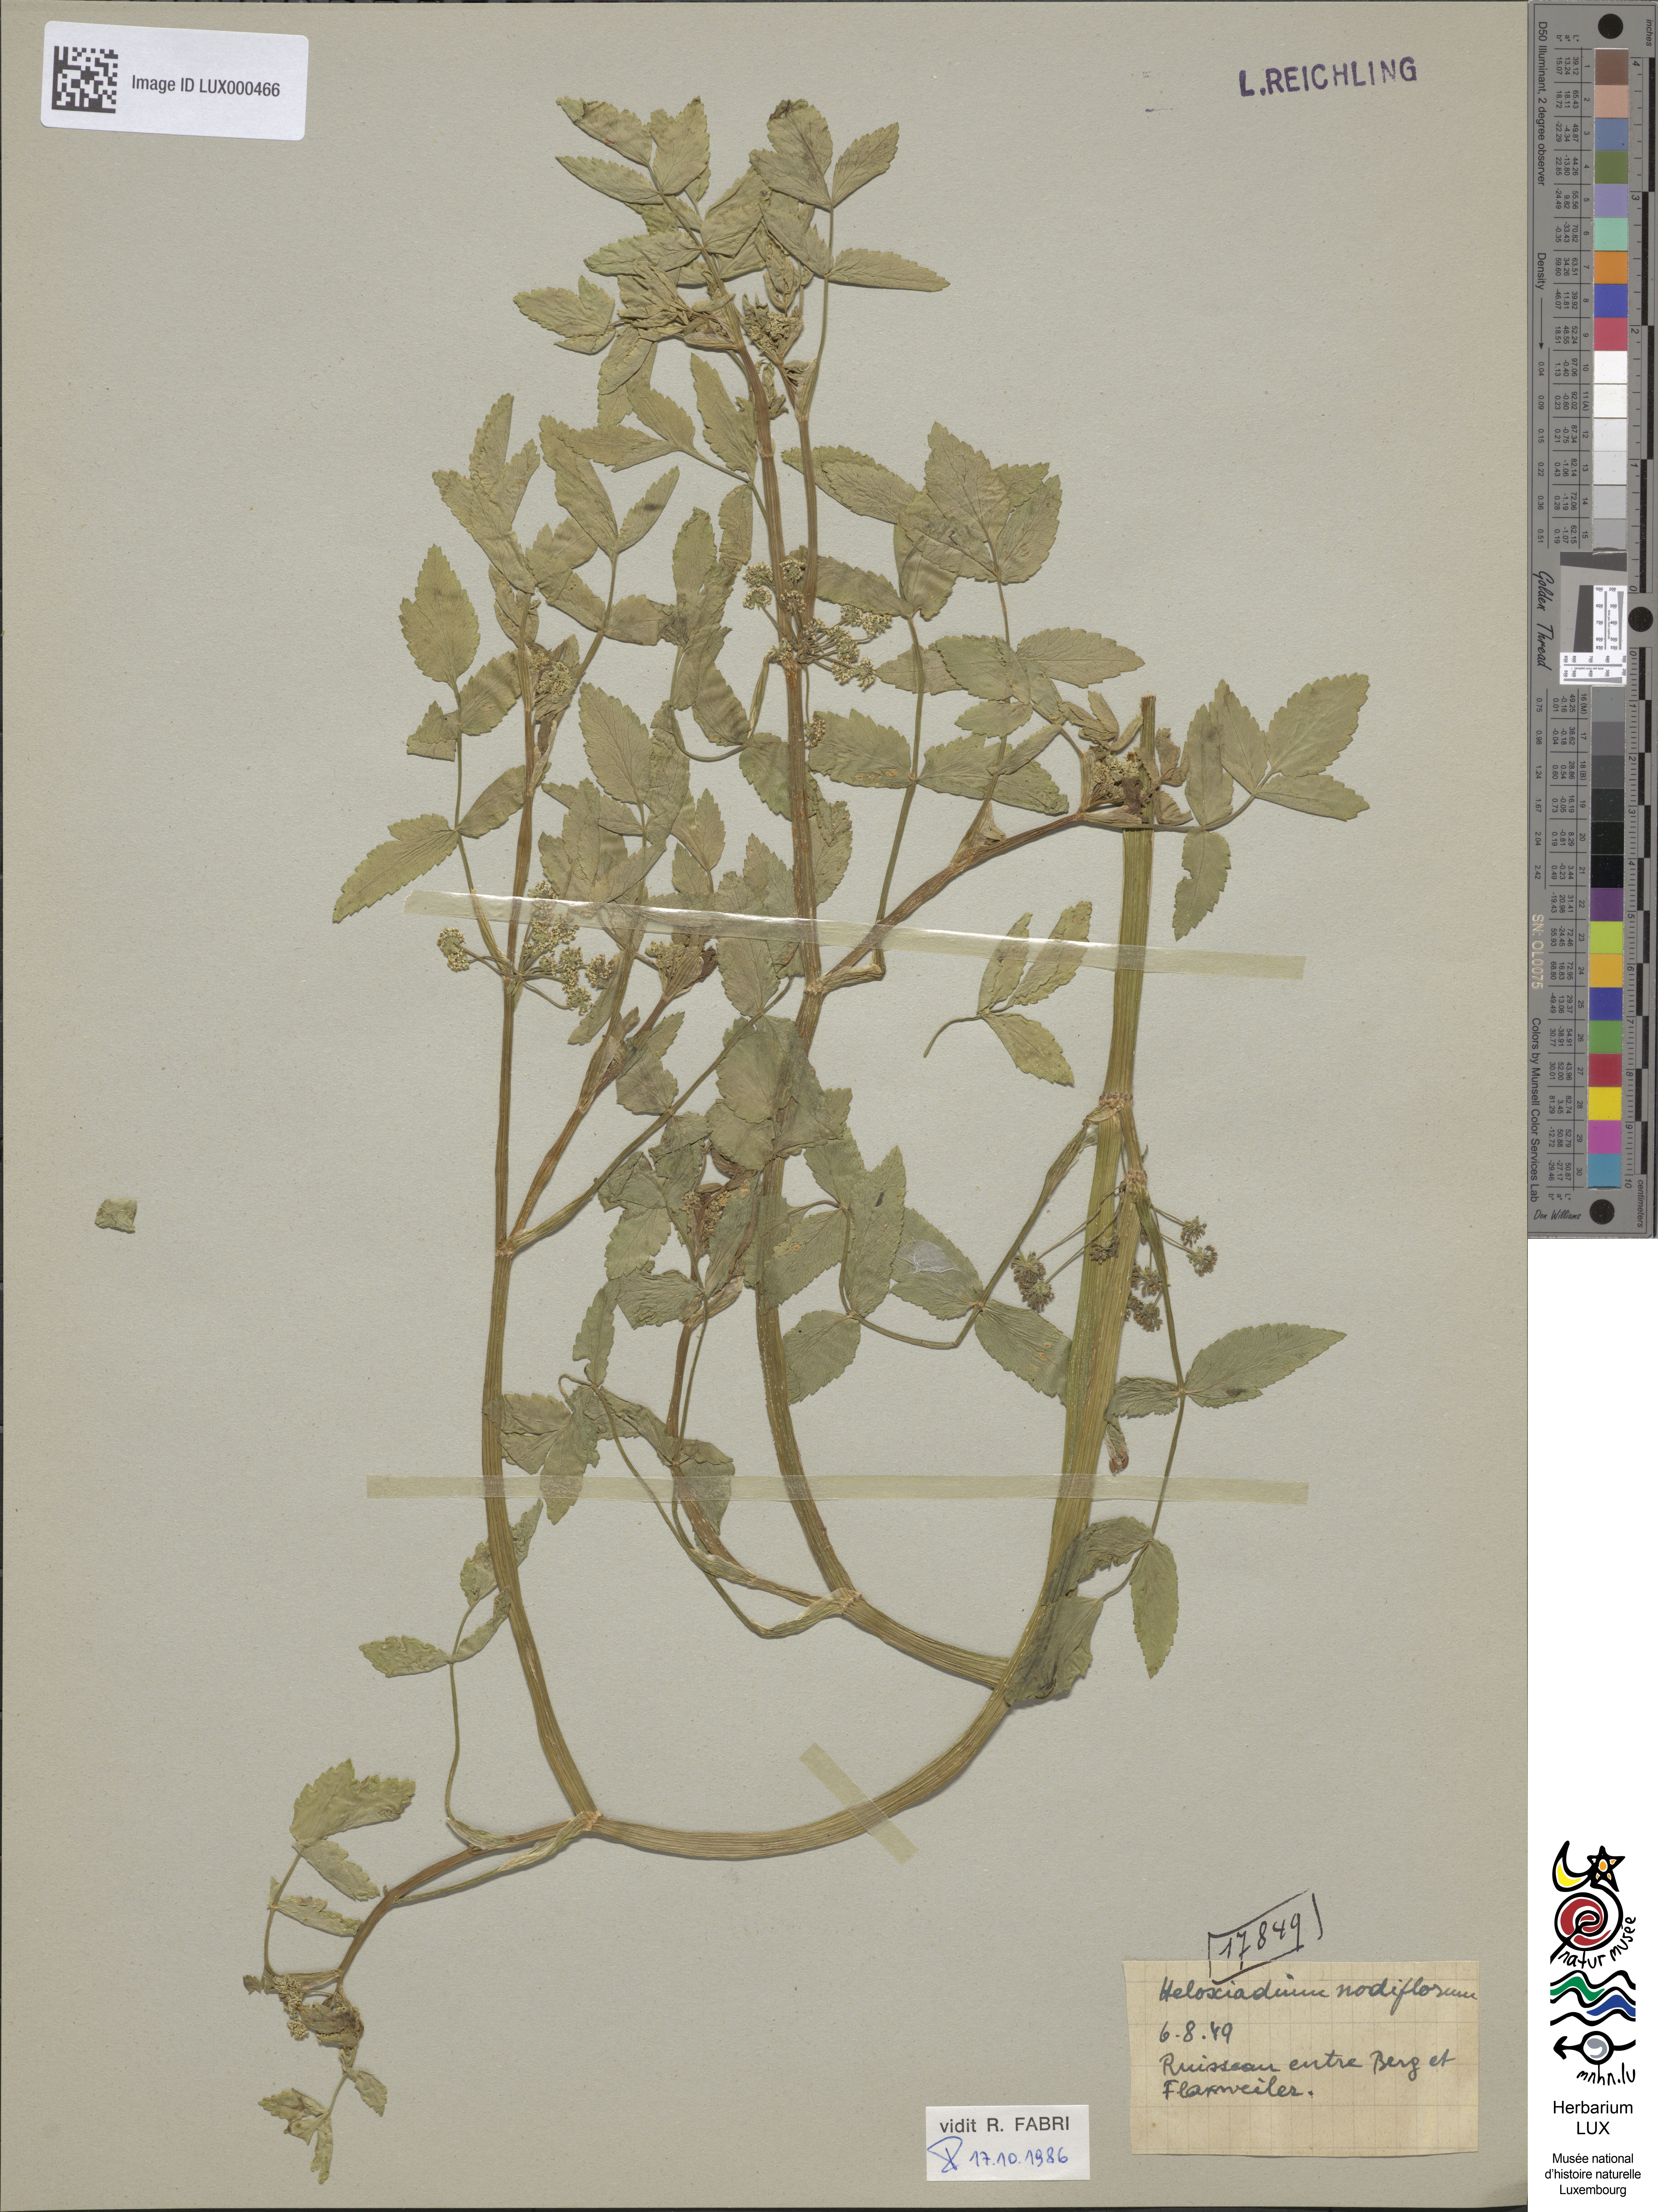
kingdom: Plantae
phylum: Tracheophyta
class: Magnoliopsida
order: Apiales
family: Apiaceae
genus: Helosciadium
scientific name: Helosciadium nodiflorum
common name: Fool's-watercress
